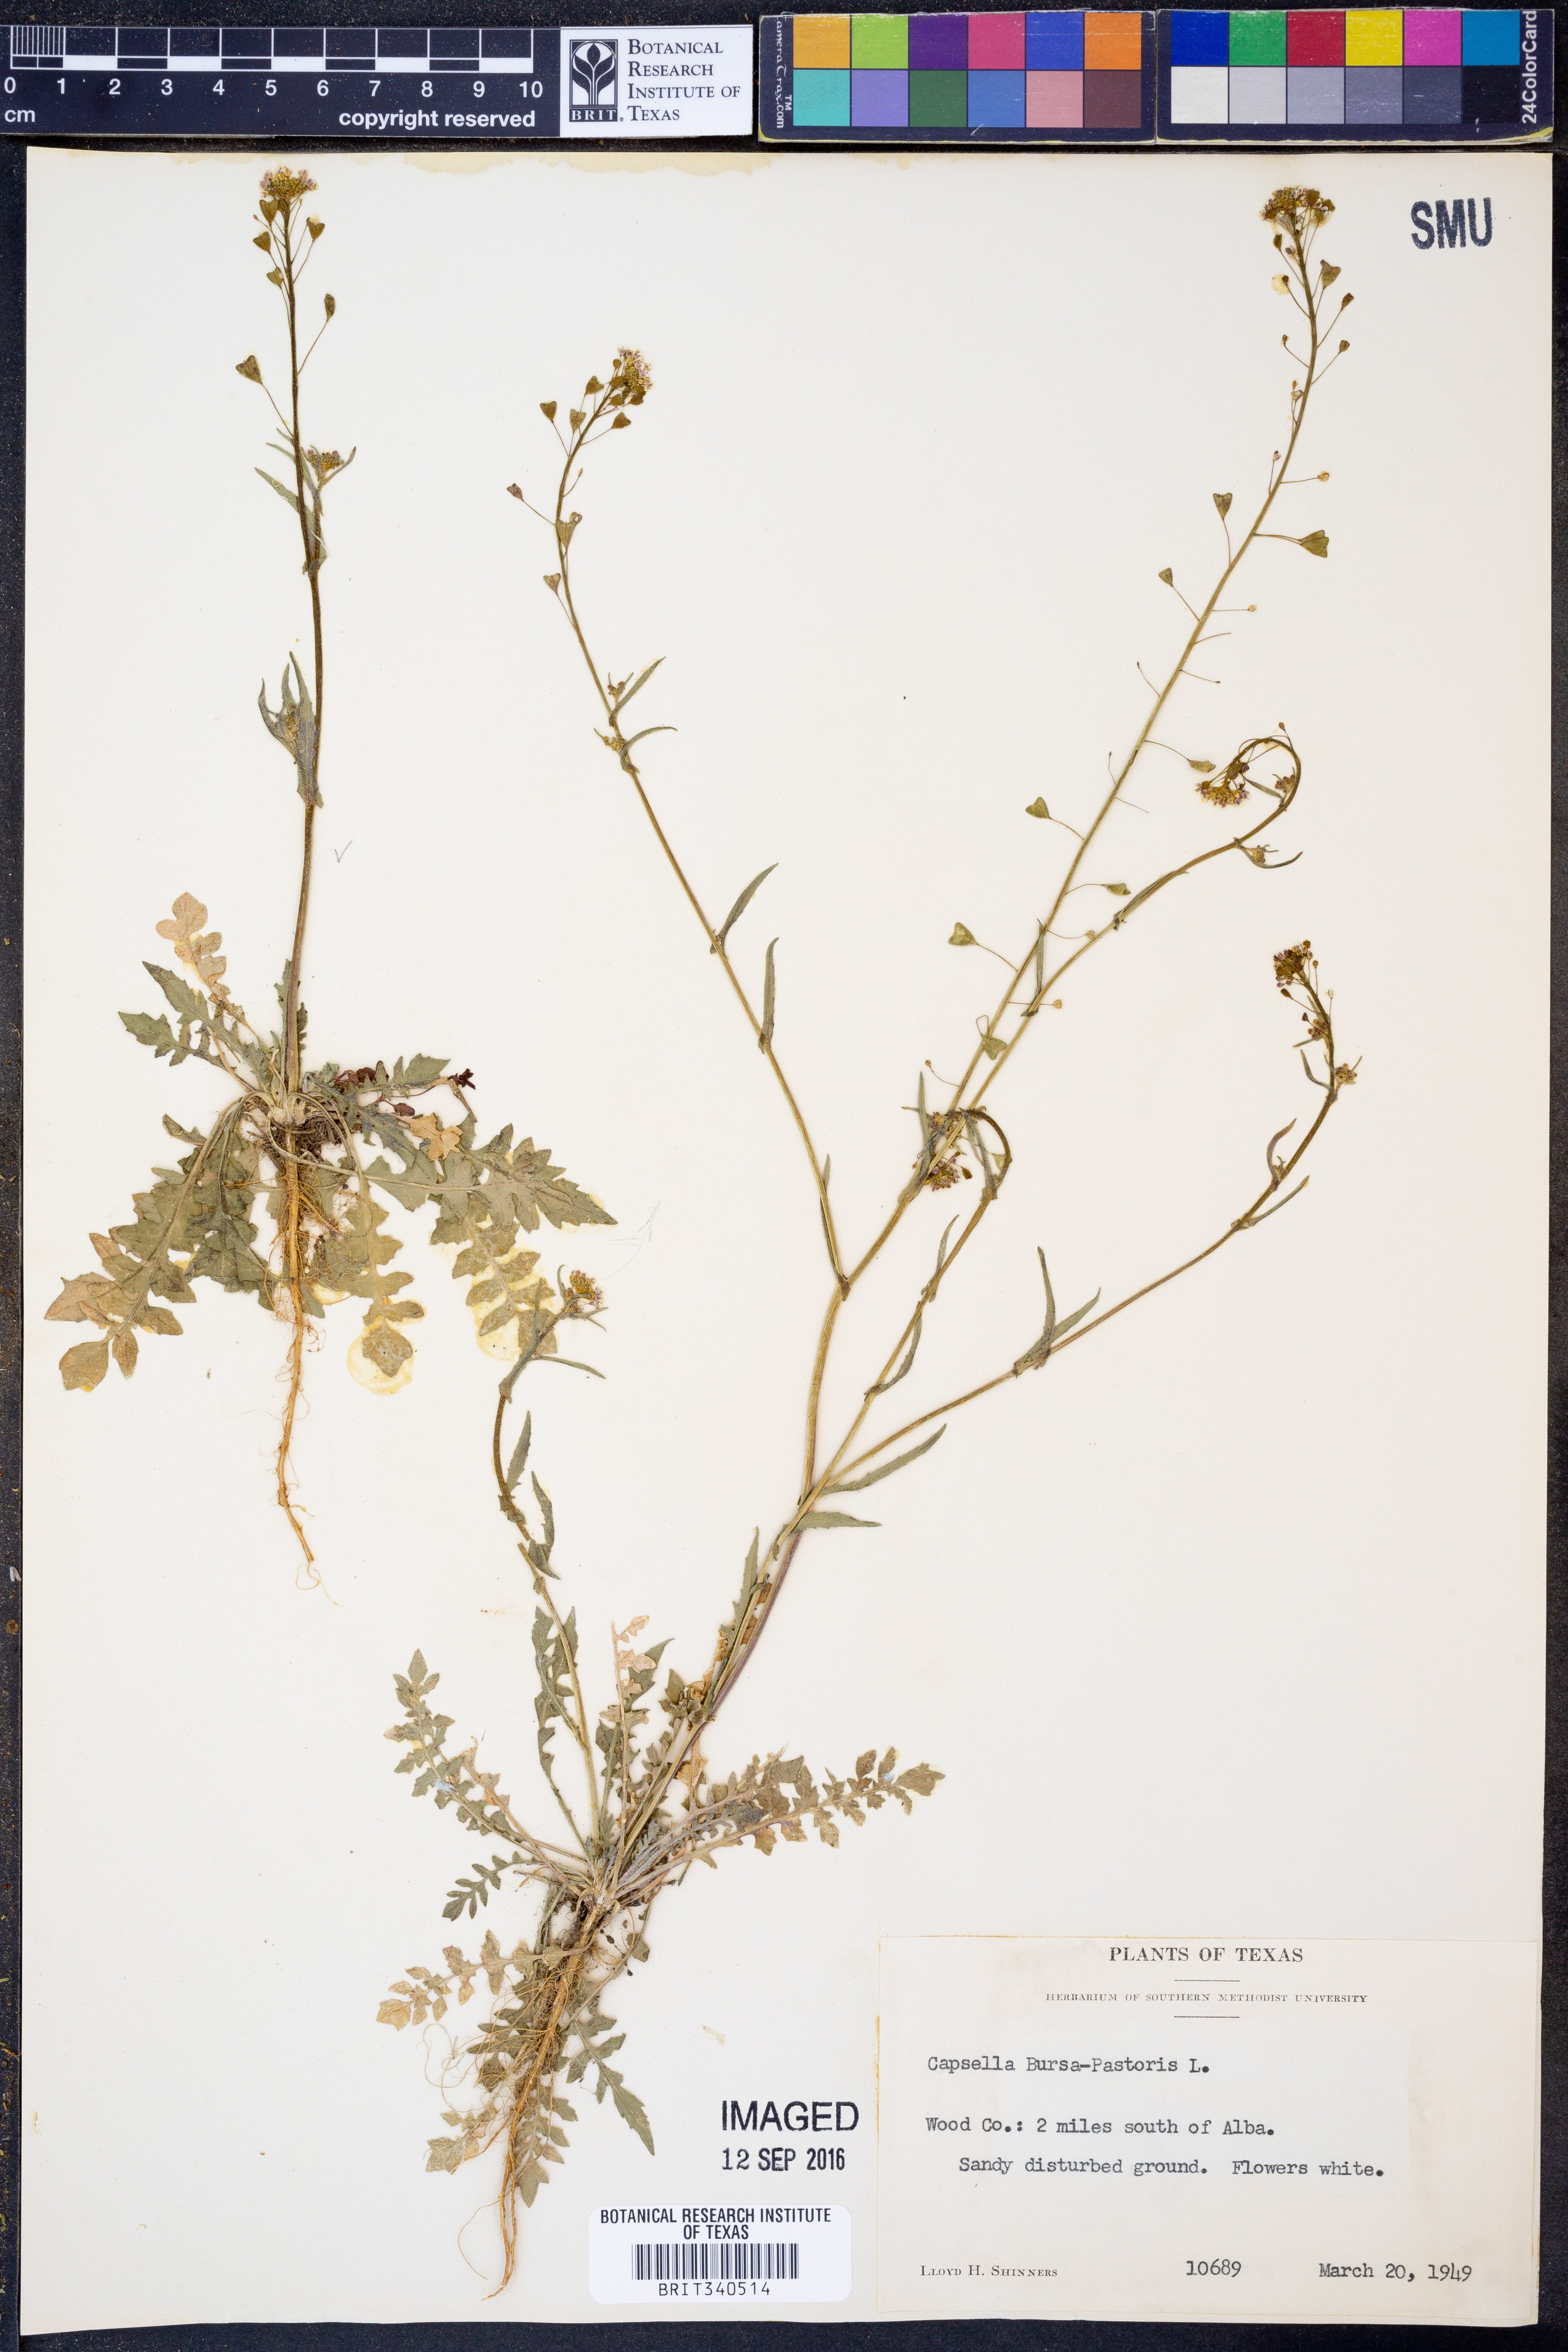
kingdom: Plantae
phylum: Tracheophyta
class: Magnoliopsida
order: Brassicales
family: Brassicaceae
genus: Capsella
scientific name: Capsella bursa-pastoris
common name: Shepherd's purse
